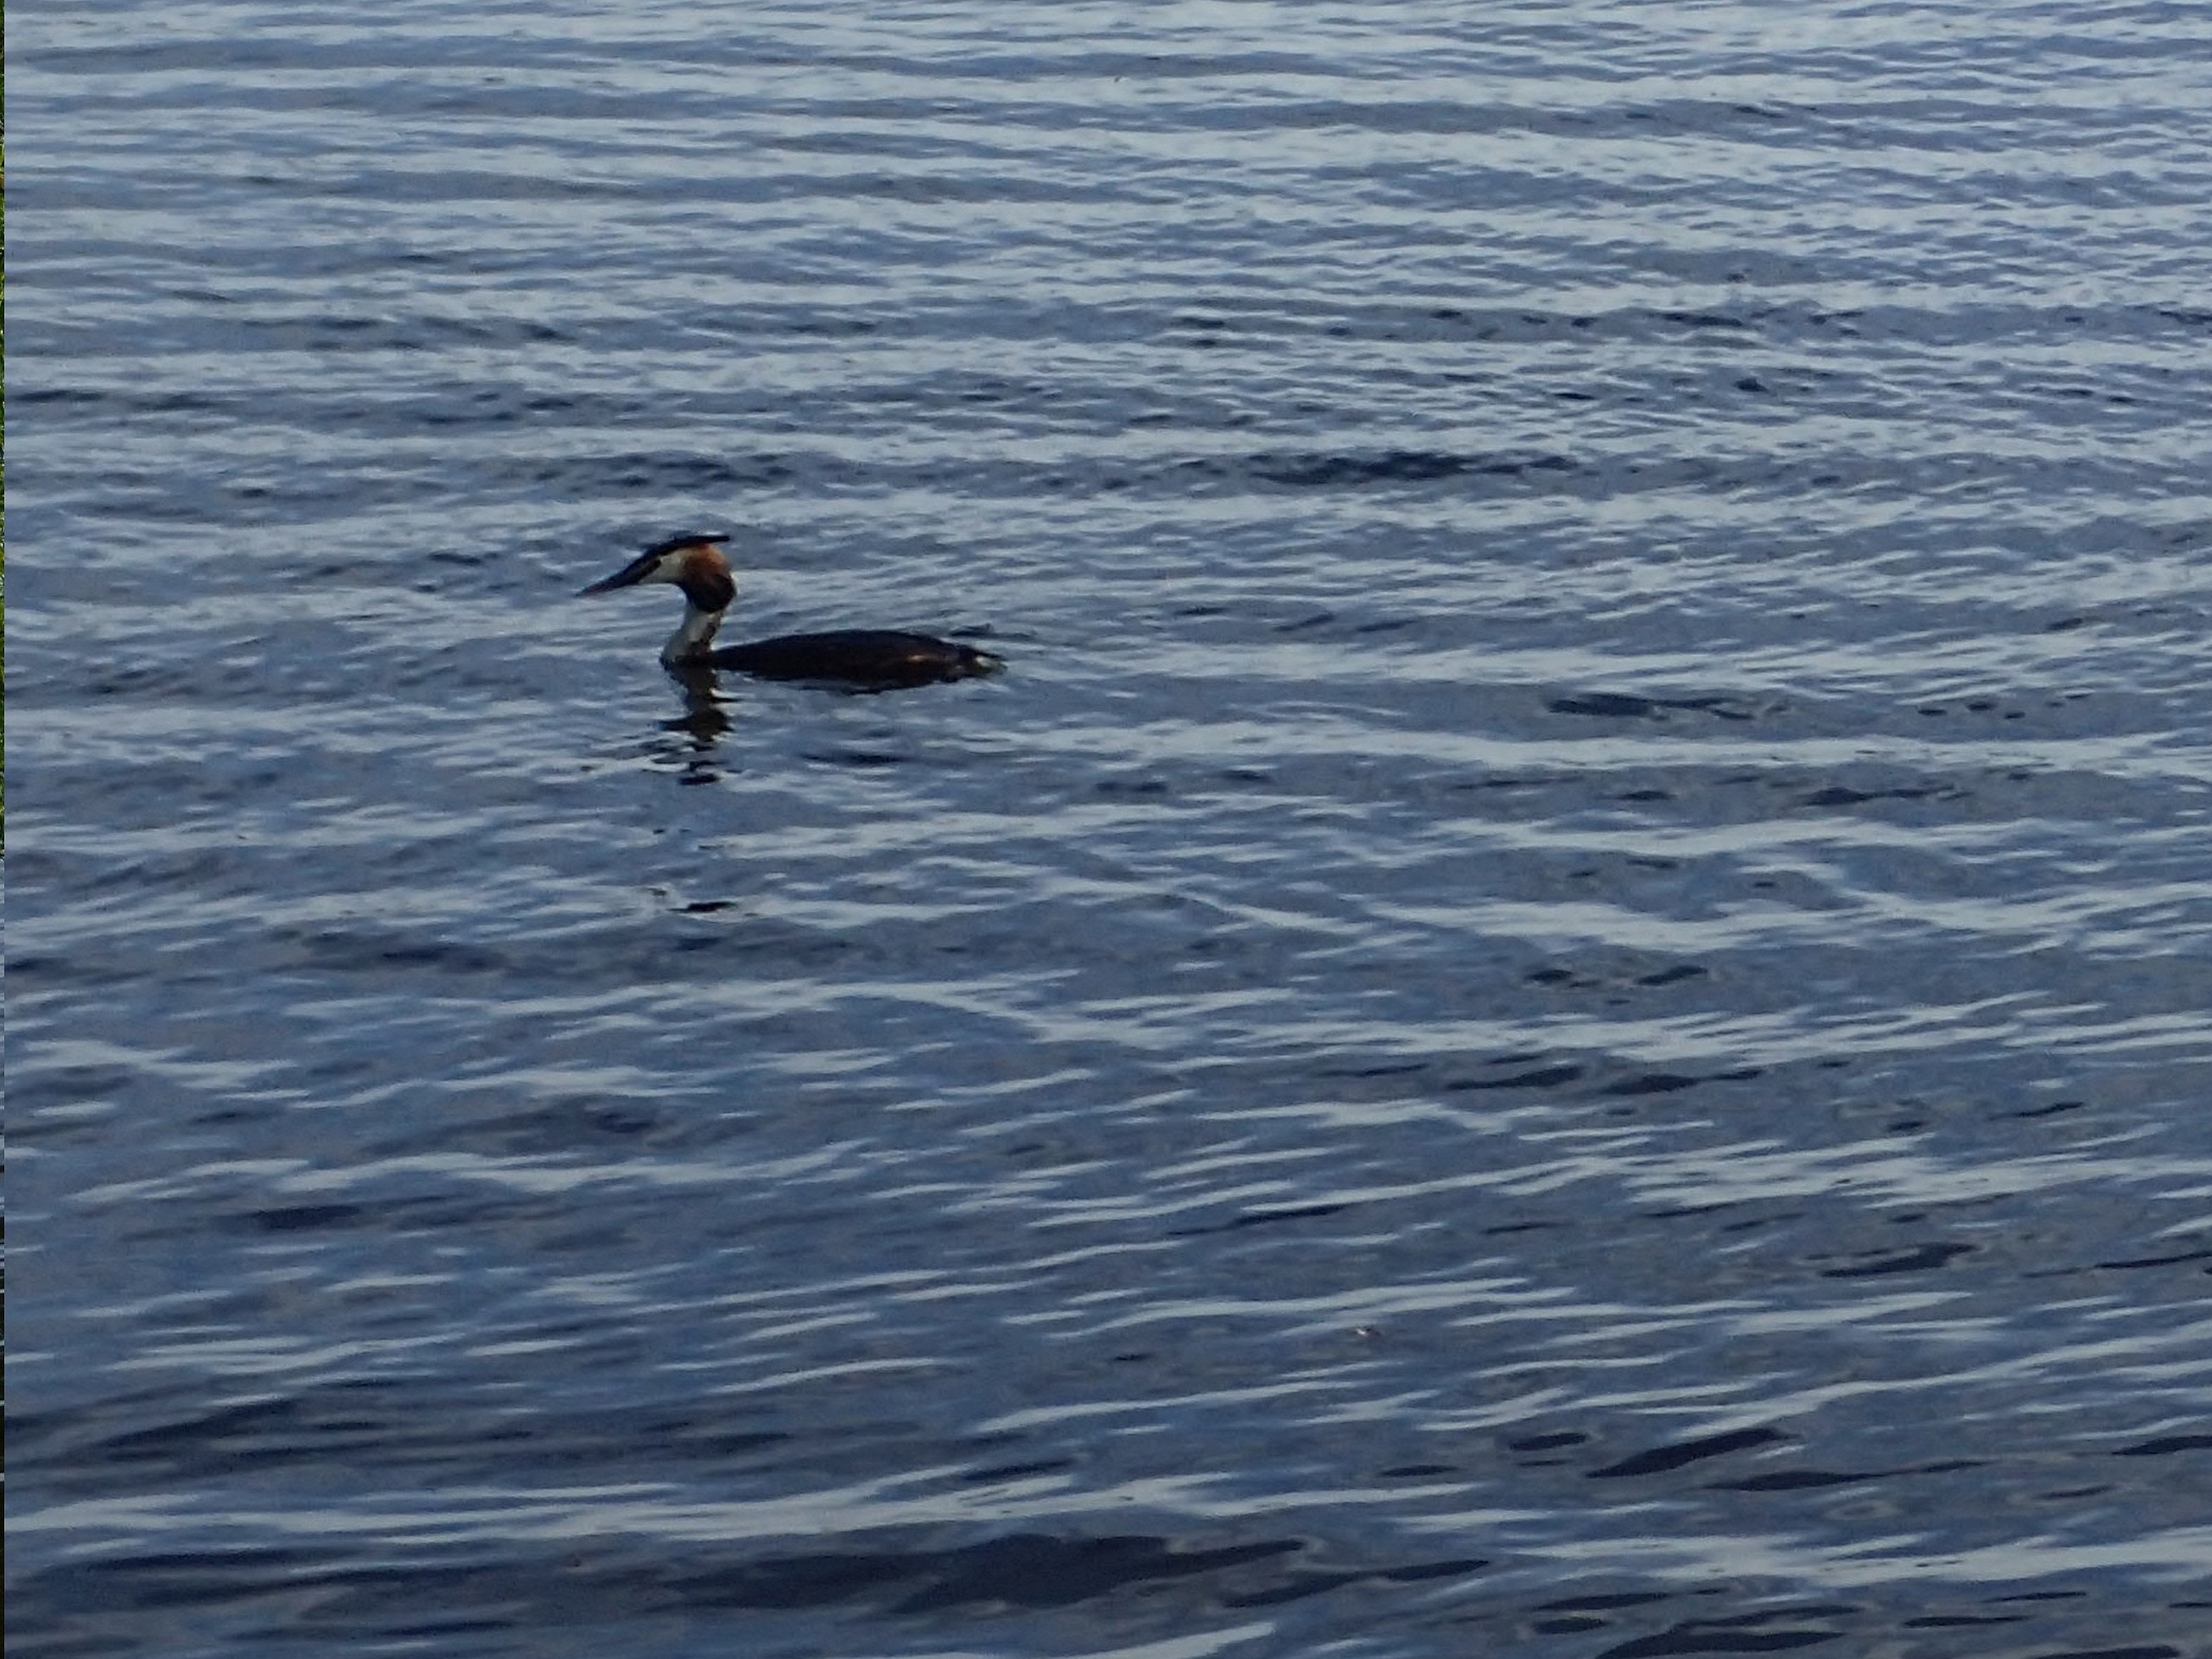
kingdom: Animalia
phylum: Chordata
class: Aves
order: Podicipediformes
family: Podicipedidae
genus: Podiceps
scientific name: Podiceps cristatus
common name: Toppet lappedykker
